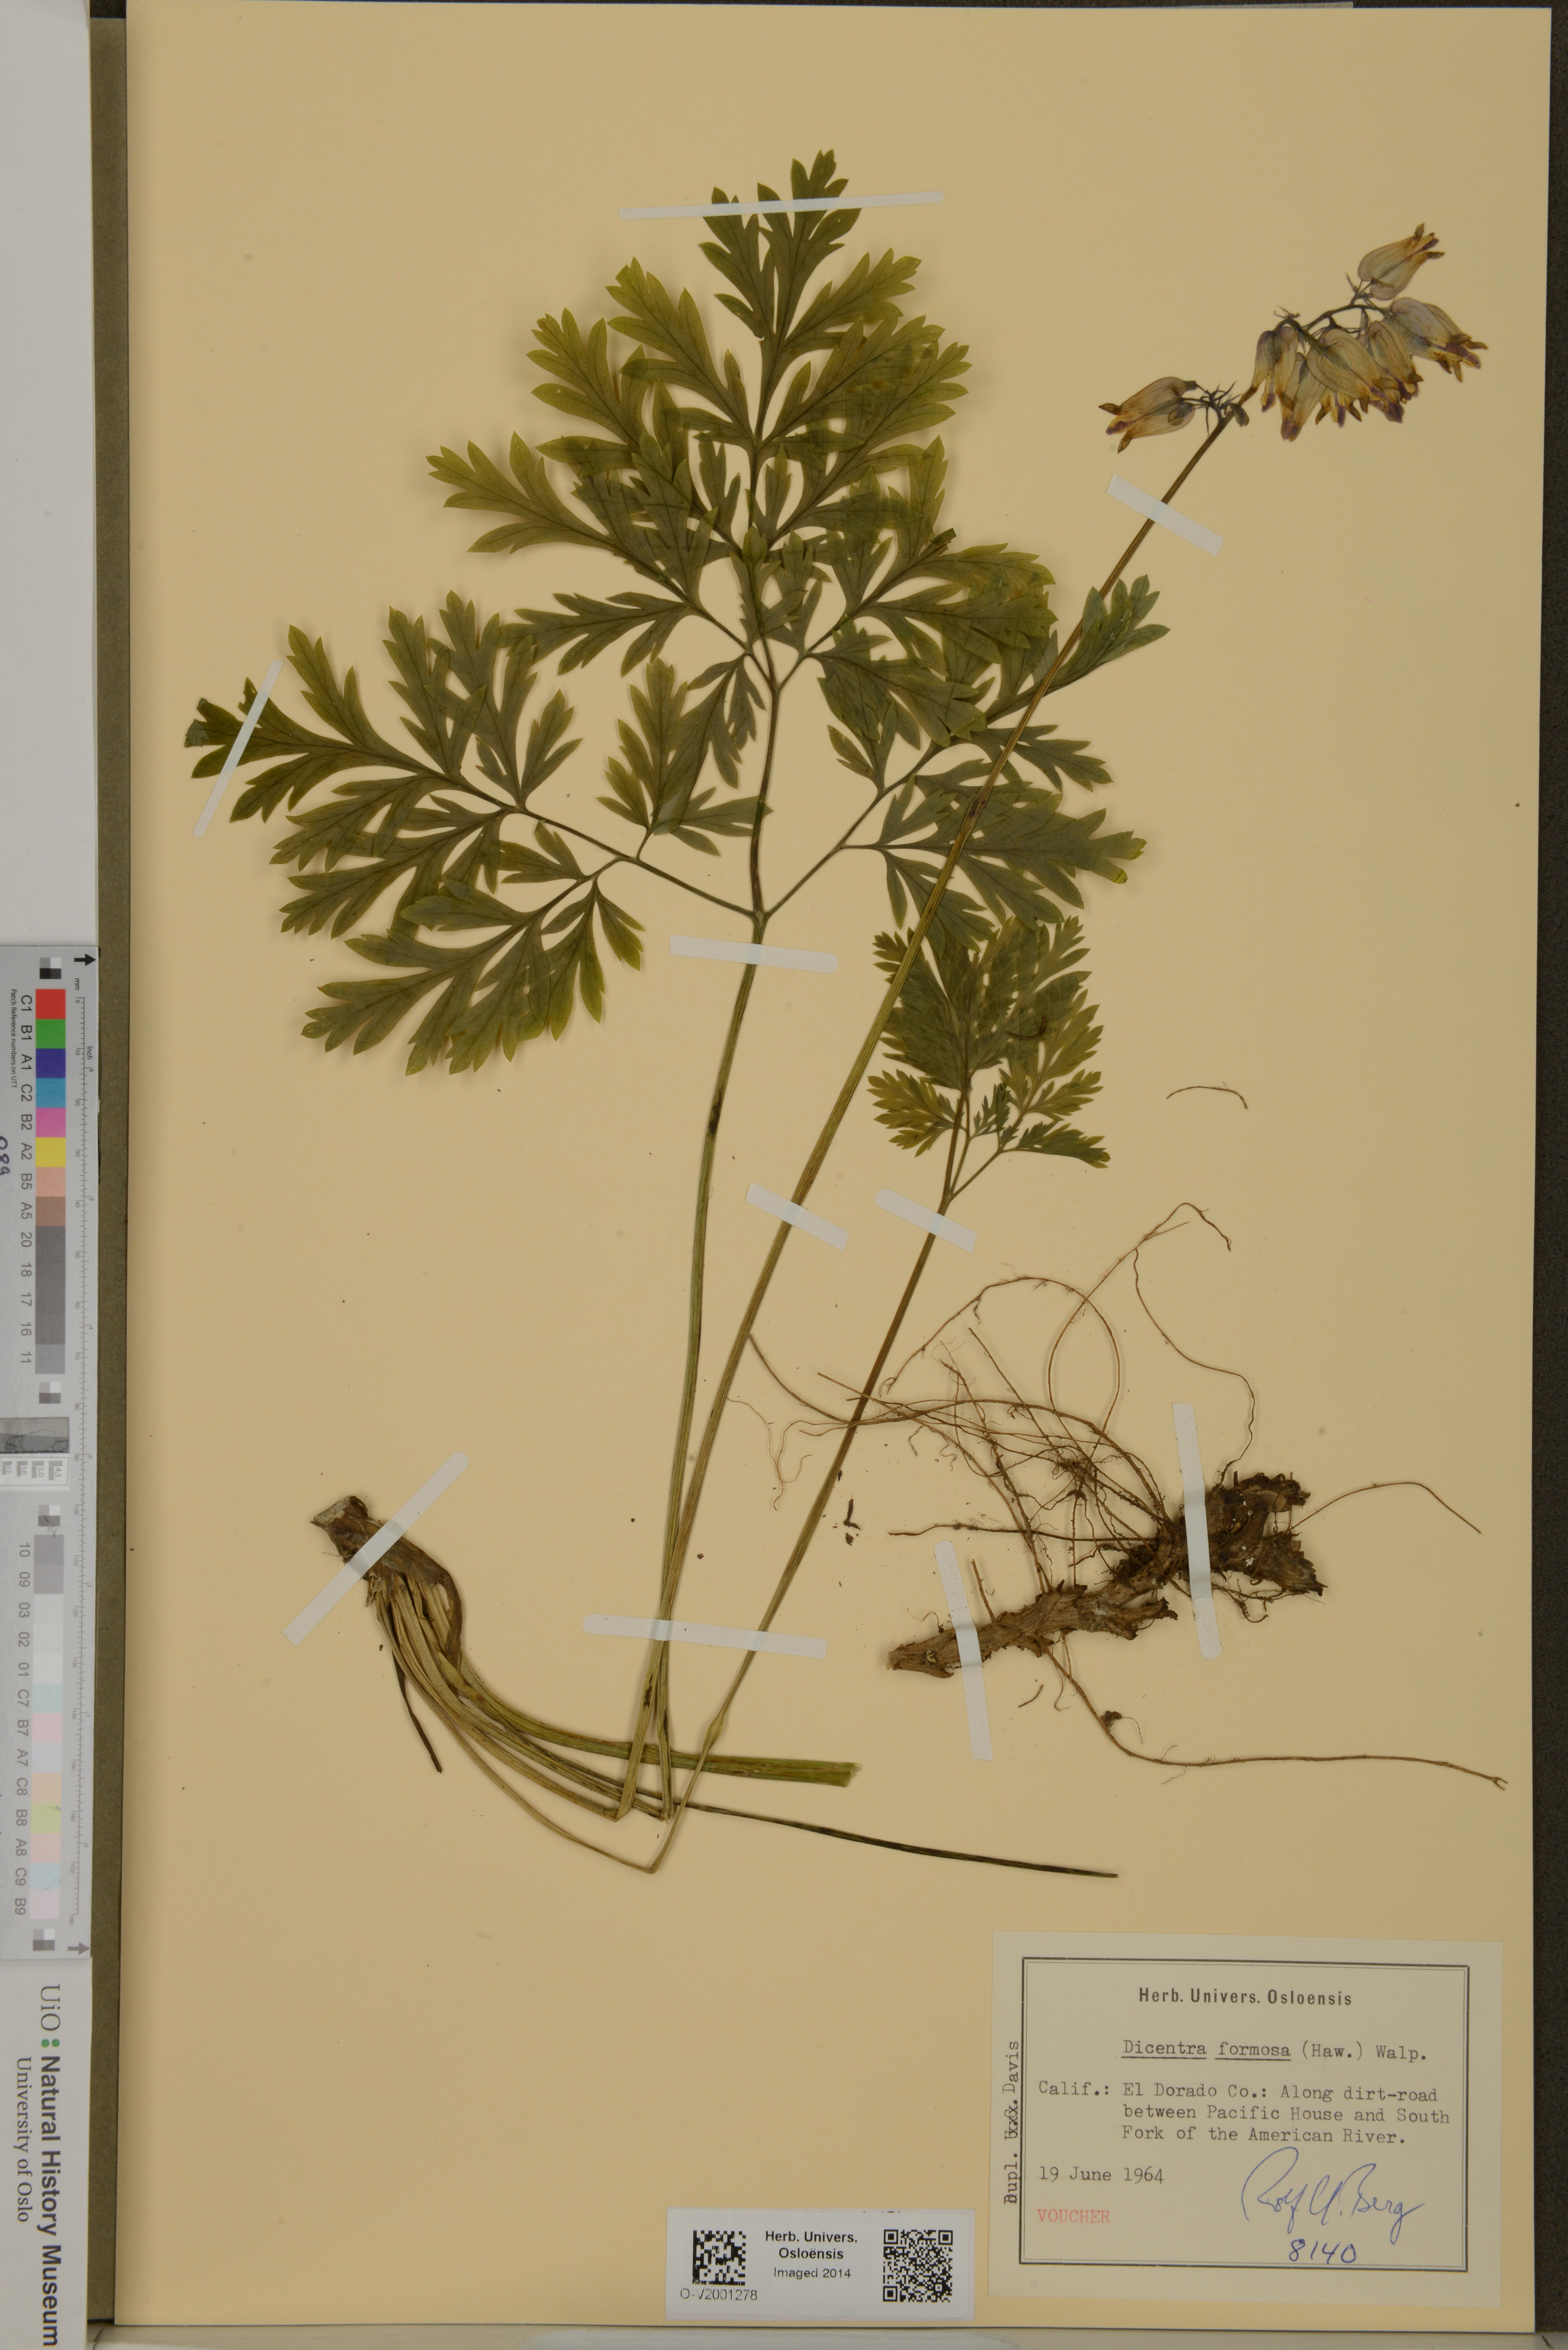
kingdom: Plantae
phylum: Tracheophyta
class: Magnoliopsida
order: Ranunculales
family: Papaveraceae
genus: Dicentra
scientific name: Dicentra formosa
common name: Bleeding-heart
